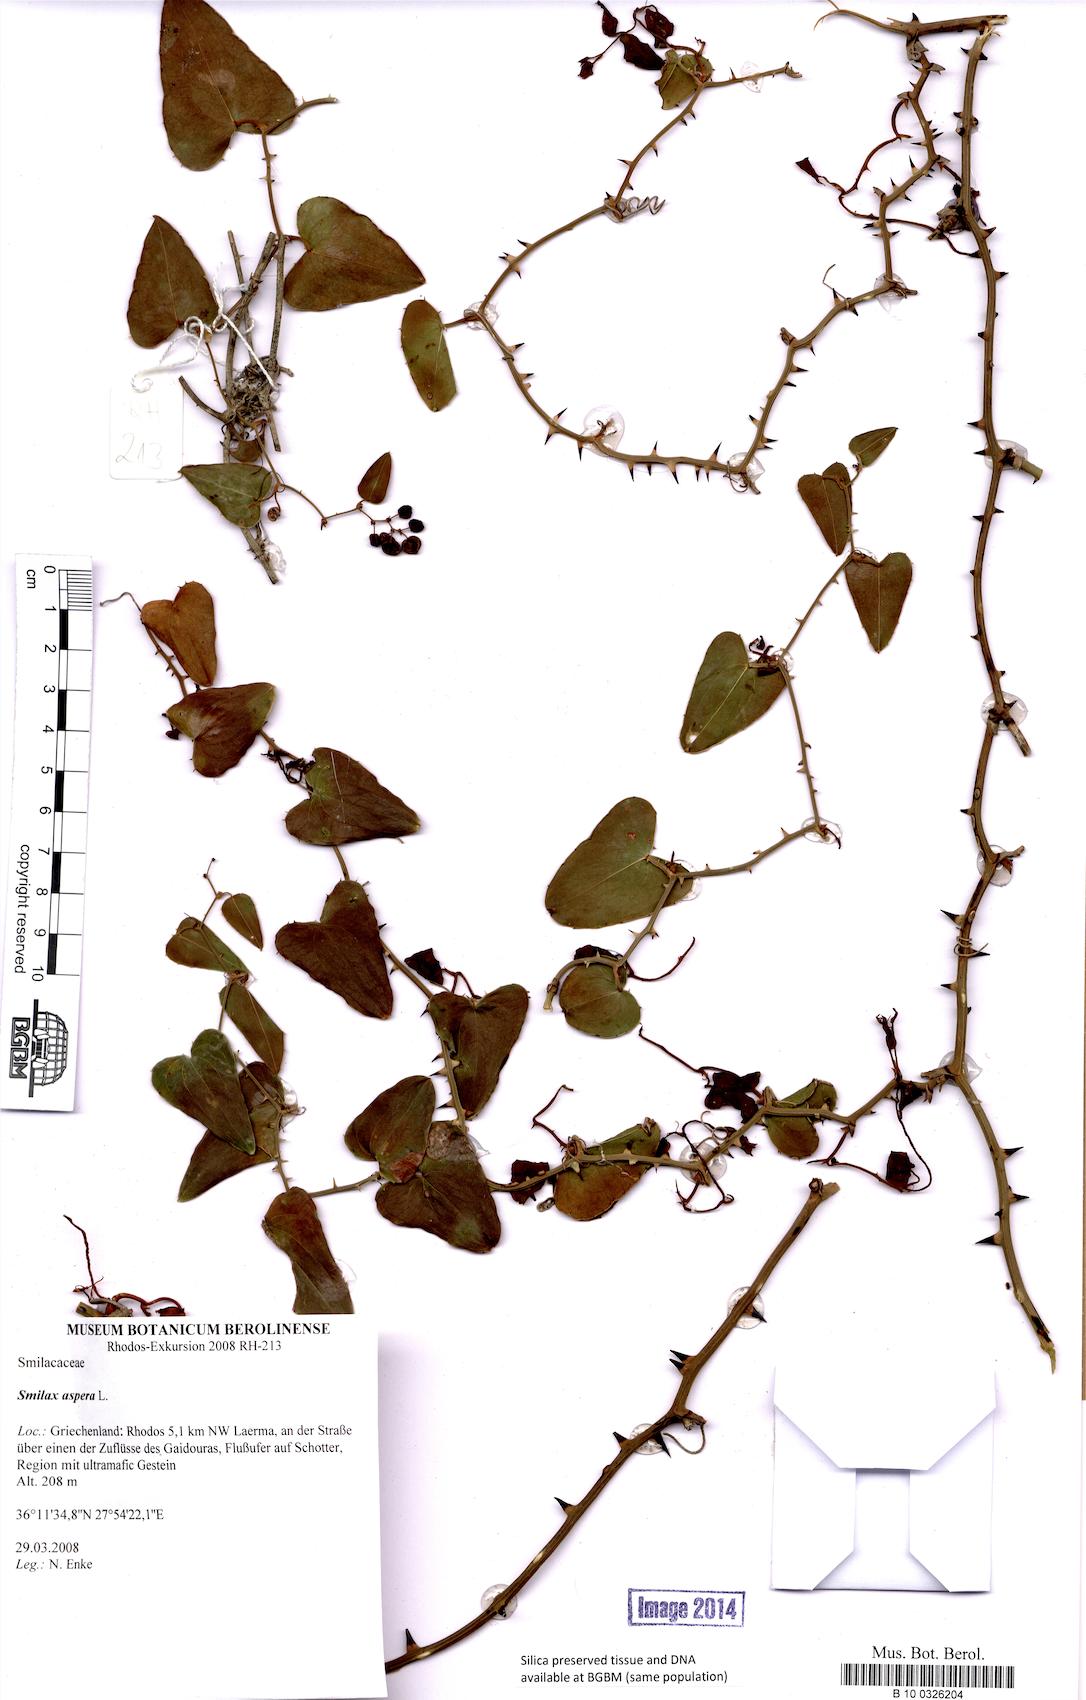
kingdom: Plantae
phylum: Tracheophyta
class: Liliopsida
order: Liliales
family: Smilacaceae
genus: Smilax
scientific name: Smilax aspera
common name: Common smilax
